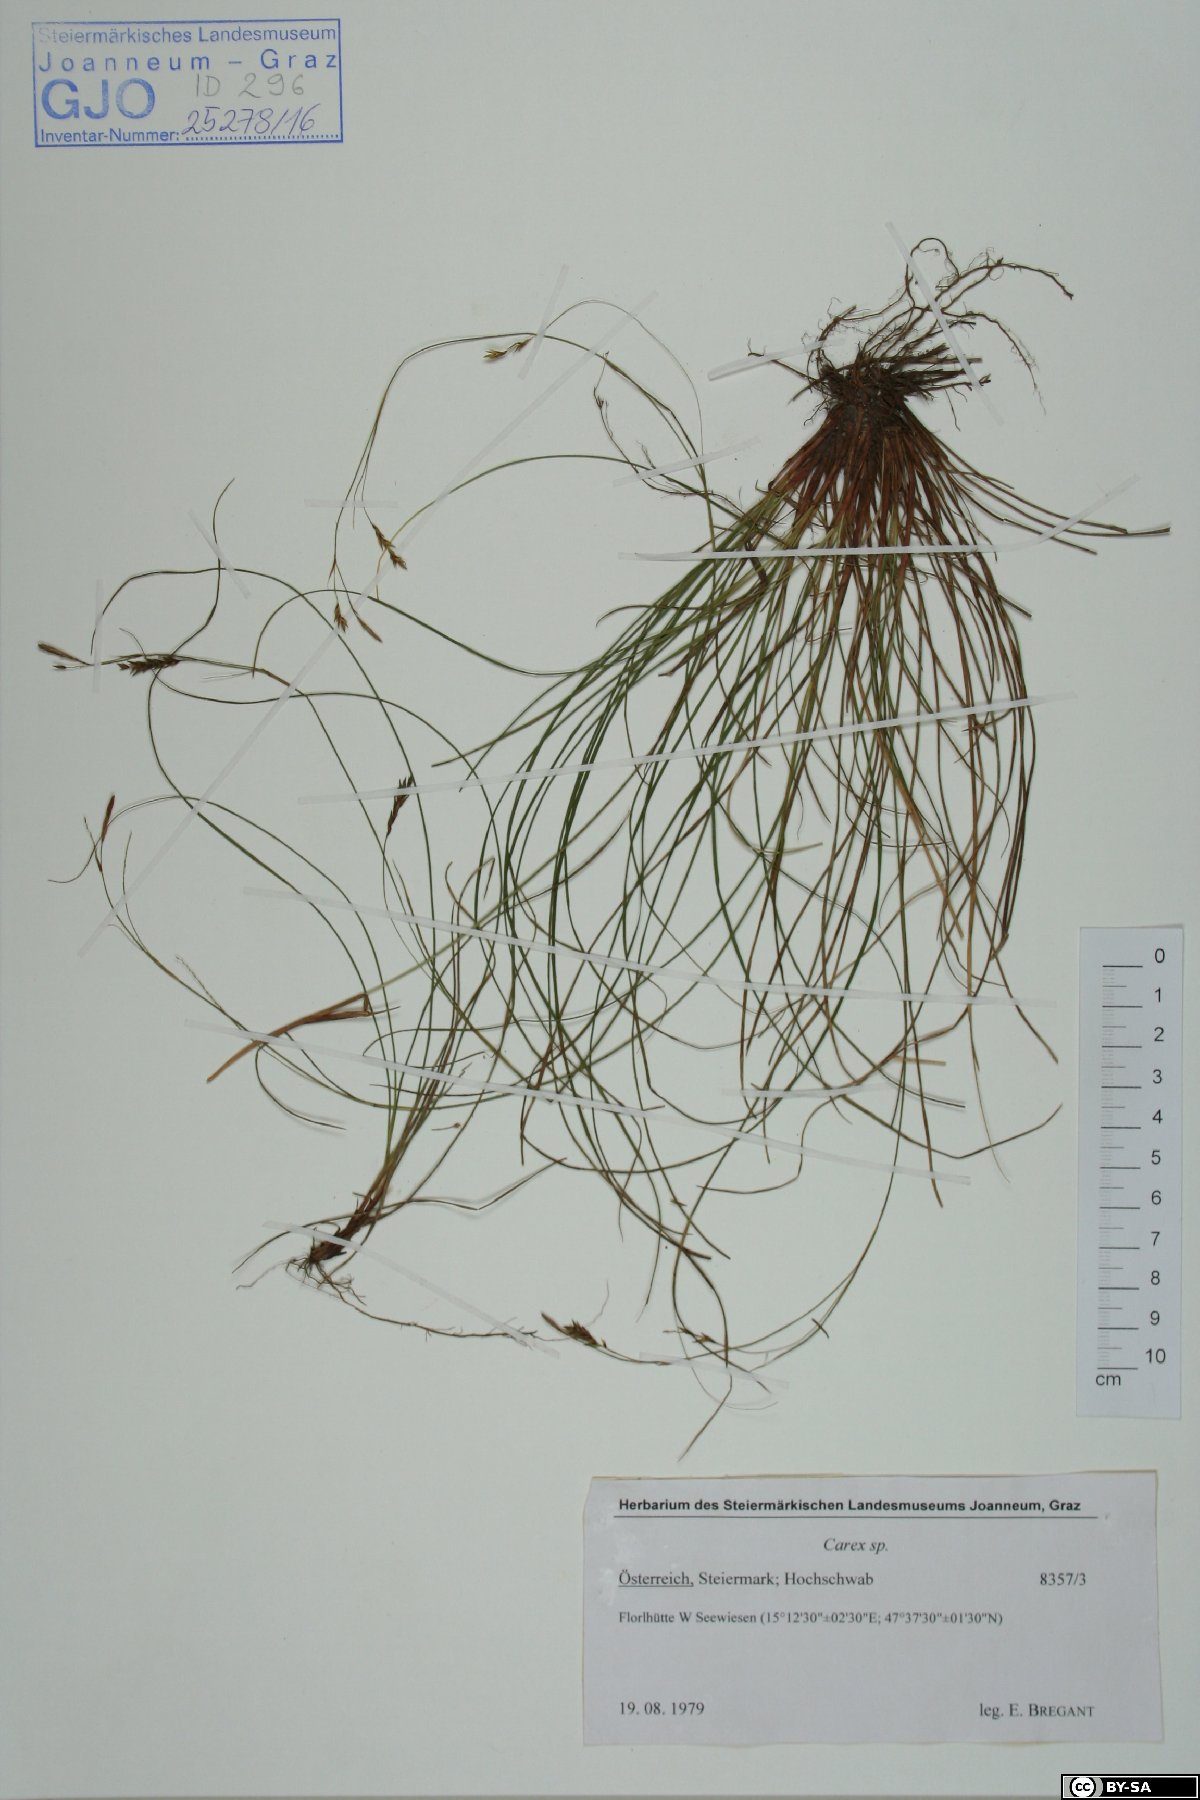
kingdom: Plantae
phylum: Tracheophyta
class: Liliopsida
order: Poales
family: Cyperaceae
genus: Carex
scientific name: Carex
